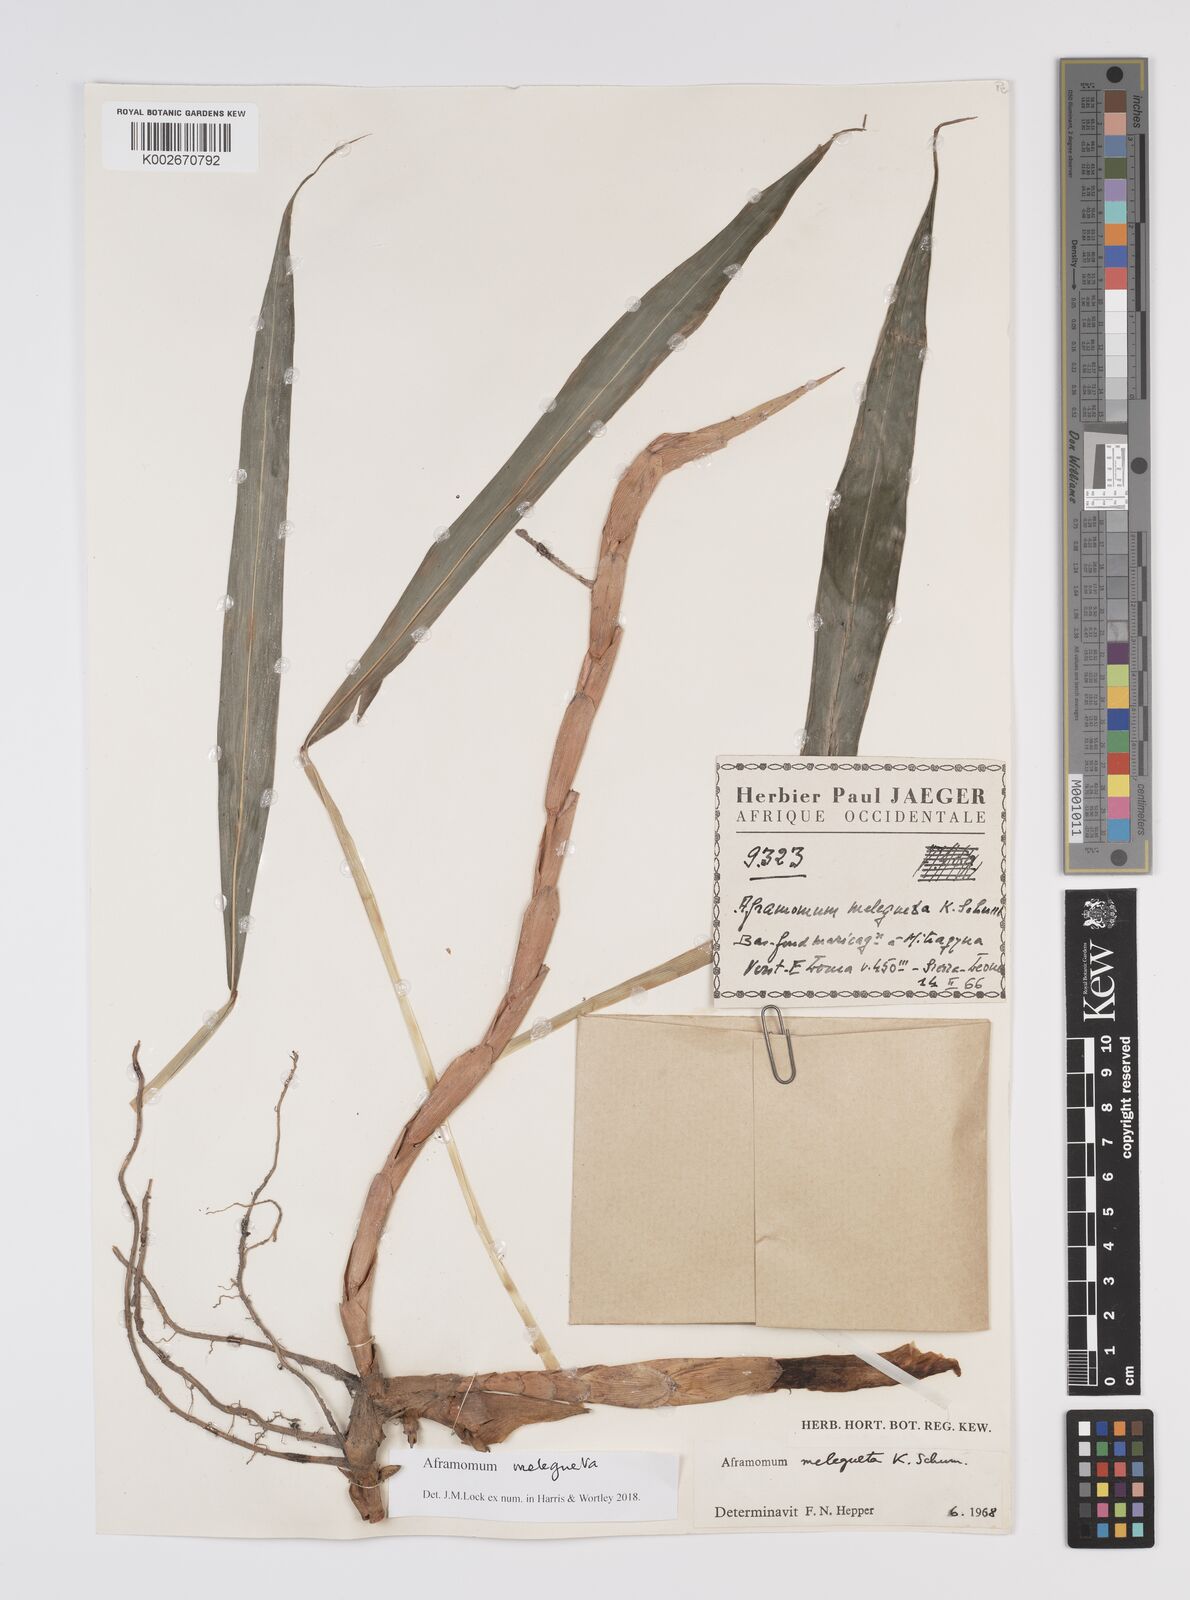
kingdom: Plantae
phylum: Tracheophyta
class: Liliopsida
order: Zingiberales
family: Zingiberaceae
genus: Aframomum
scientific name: Aframomum melegueta
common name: Grains of paradise
